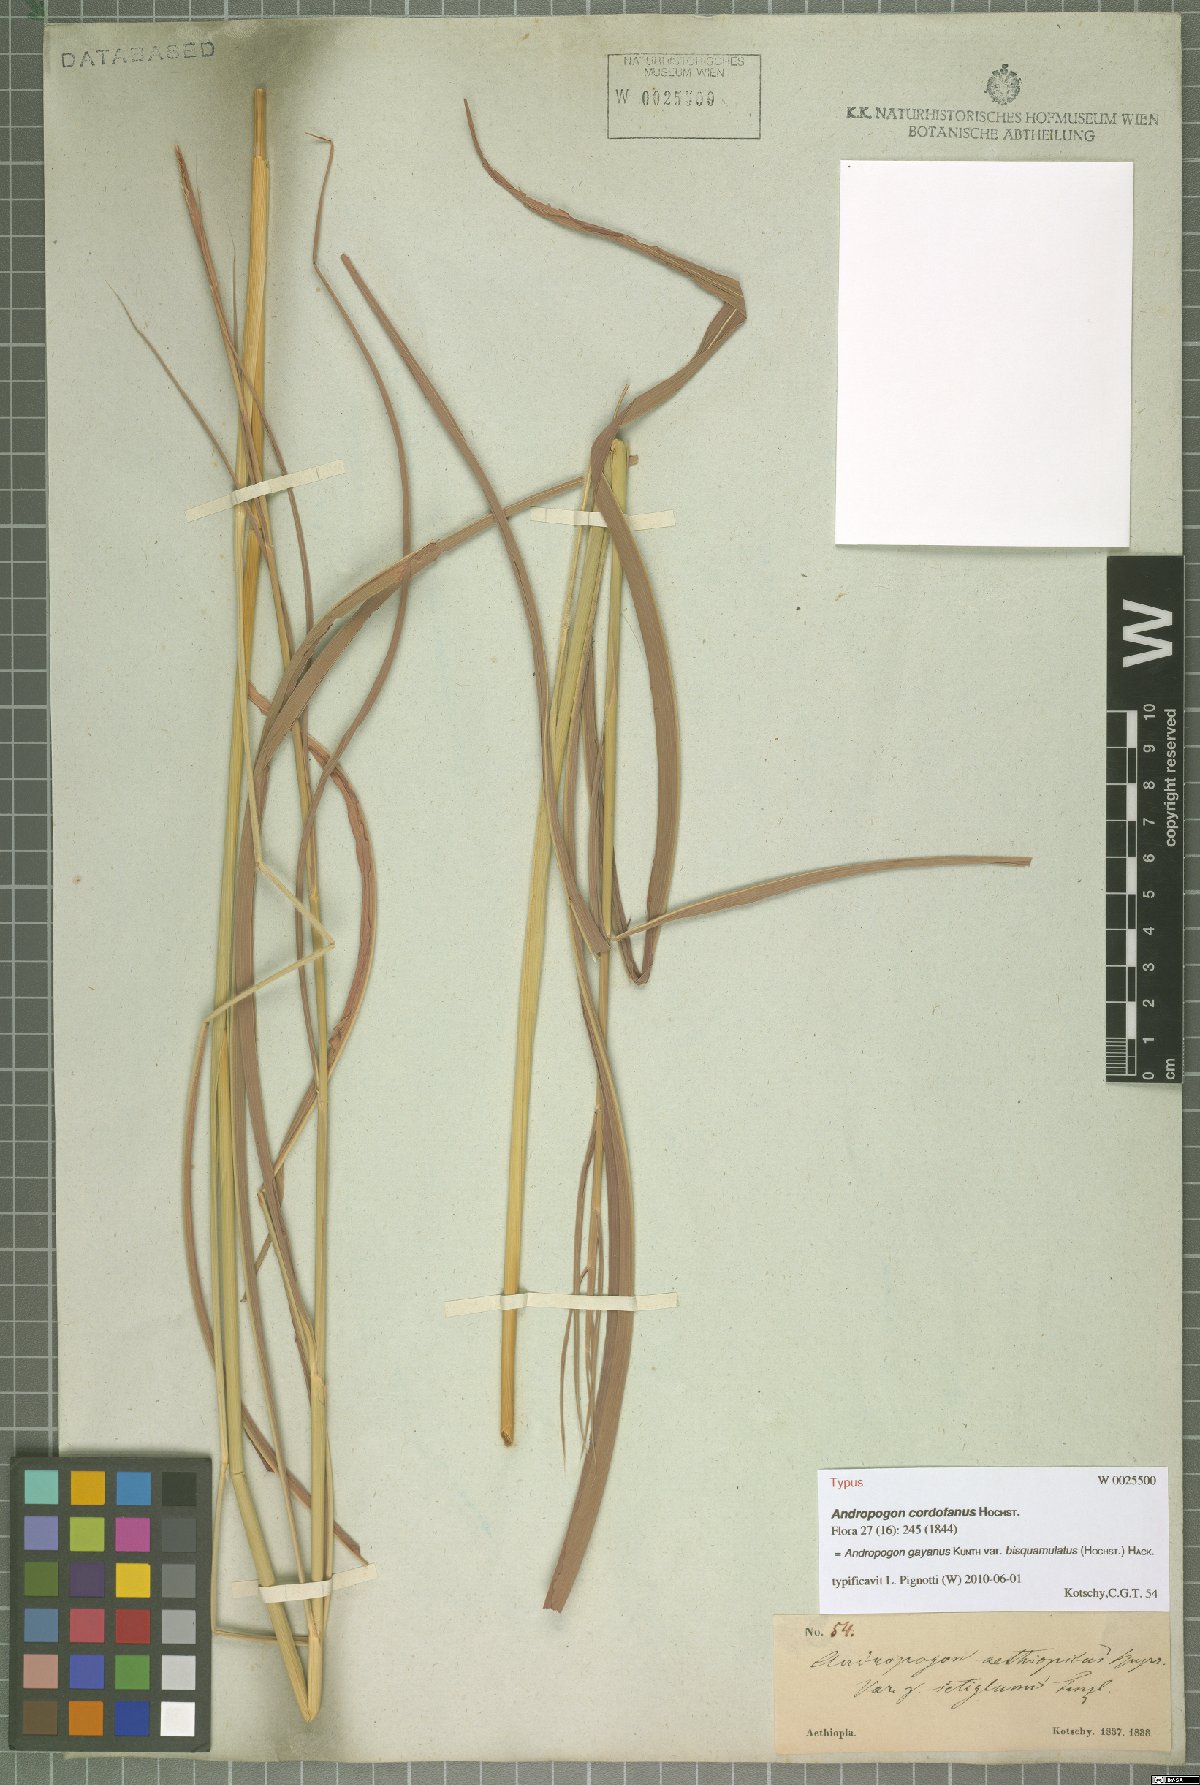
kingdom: Plantae
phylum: Tracheophyta
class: Liliopsida
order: Poales
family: Poaceae
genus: Andropogon
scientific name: Andropogon gayanus
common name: Tambuki grass
